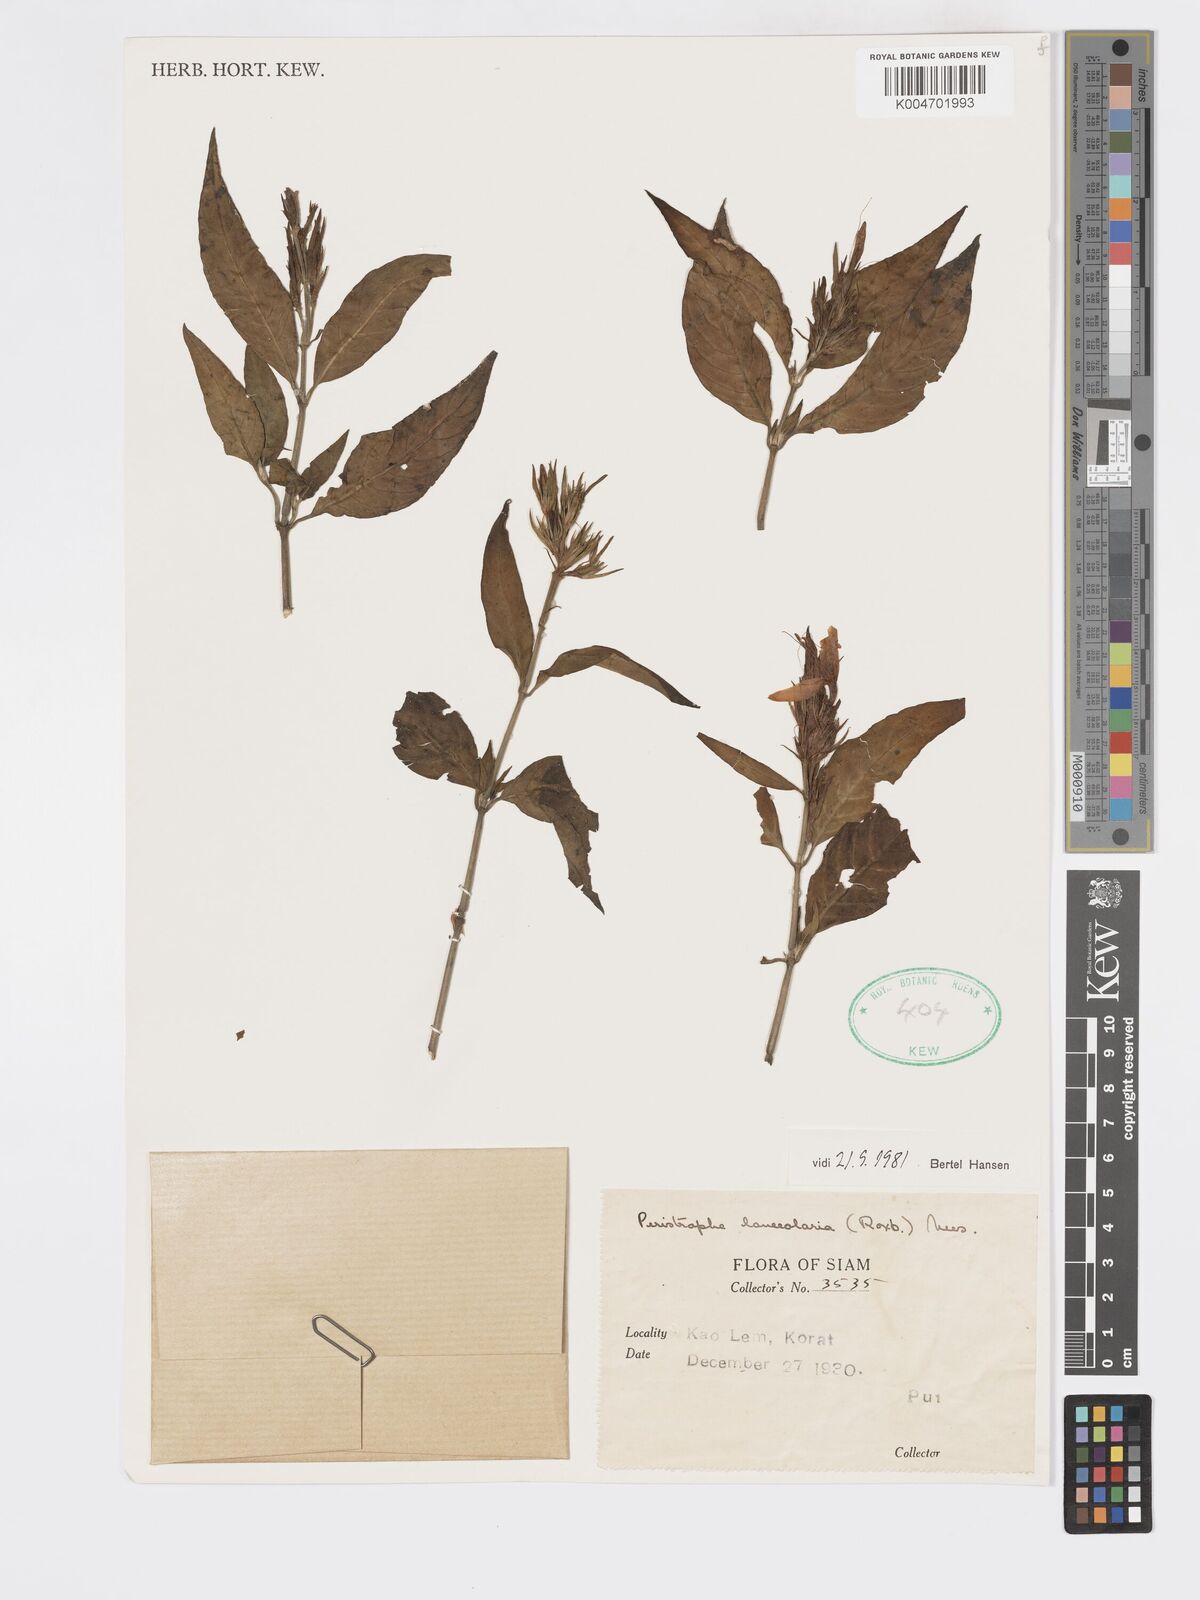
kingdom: Plantae
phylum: Tracheophyta
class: Magnoliopsida
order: Lamiales
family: Acanthaceae
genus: Dicliptera
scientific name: Dicliptera lanceolaria
